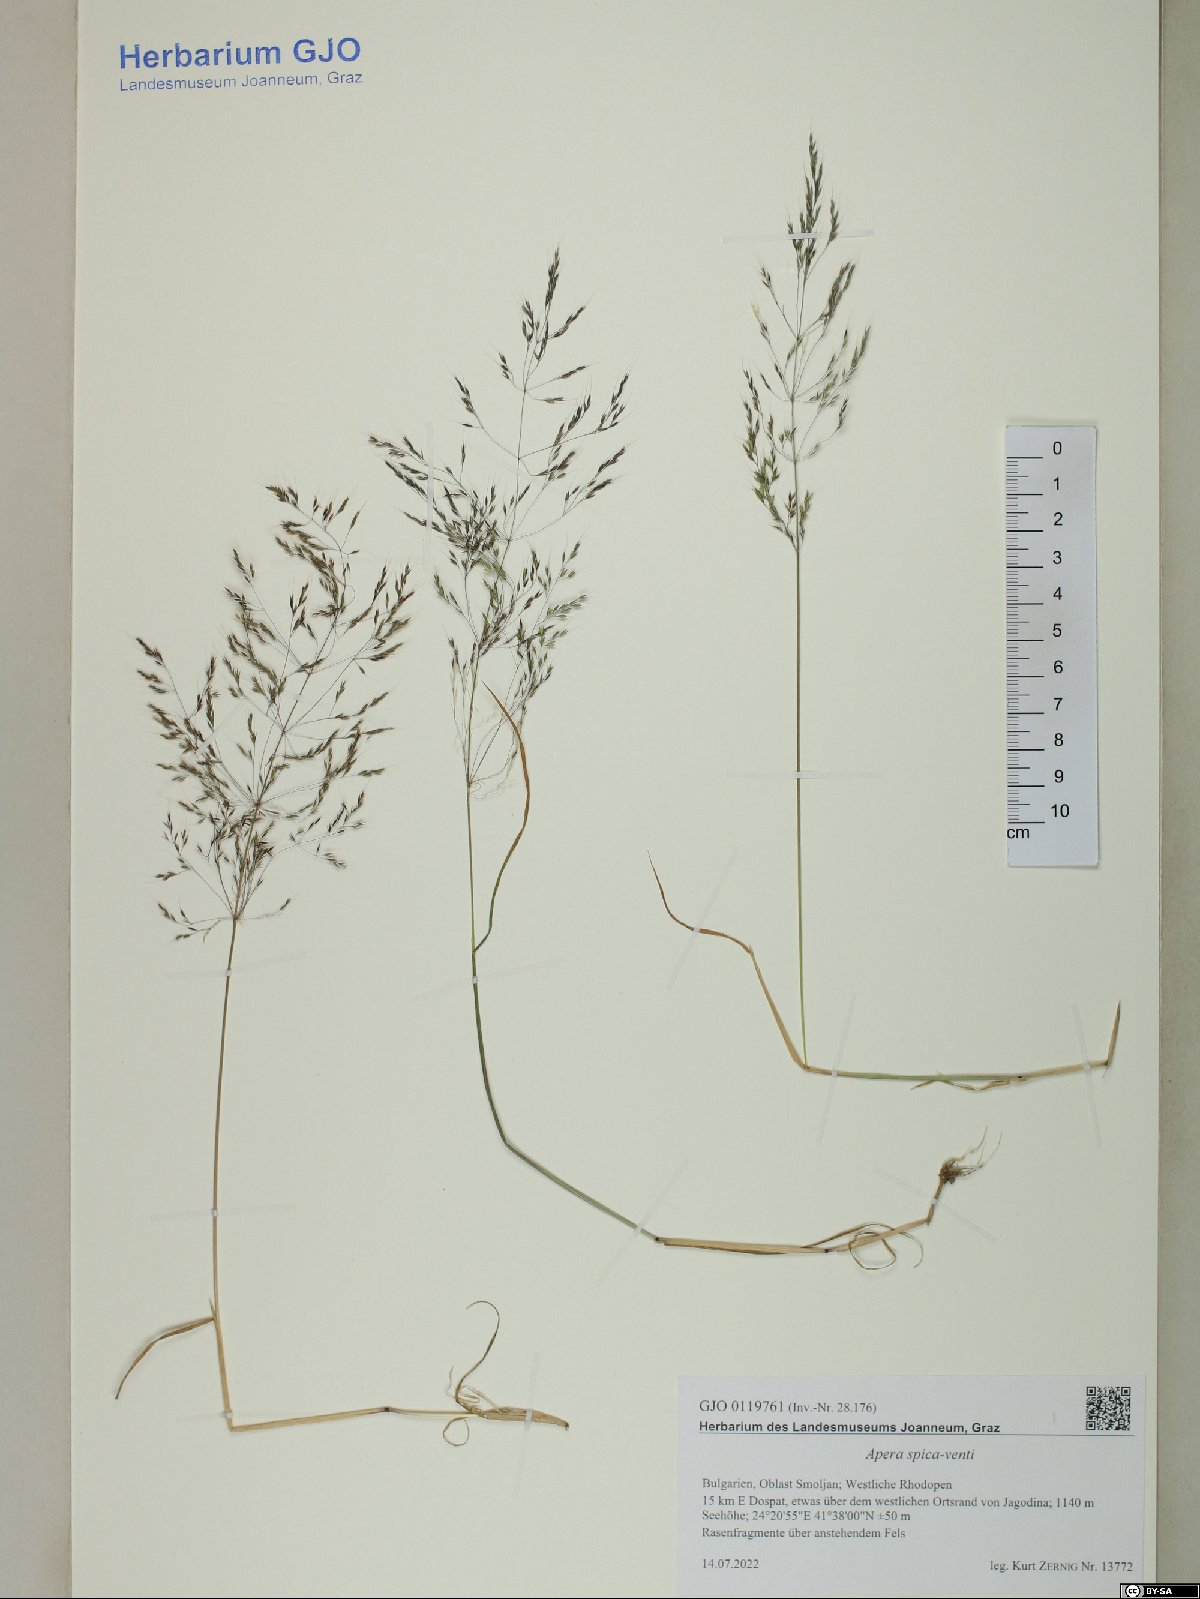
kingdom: Plantae
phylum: Tracheophyta
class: Liliopsida
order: Poales
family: Poaceae
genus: Apera
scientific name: Apera spica-venti
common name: Loose silky-bent
